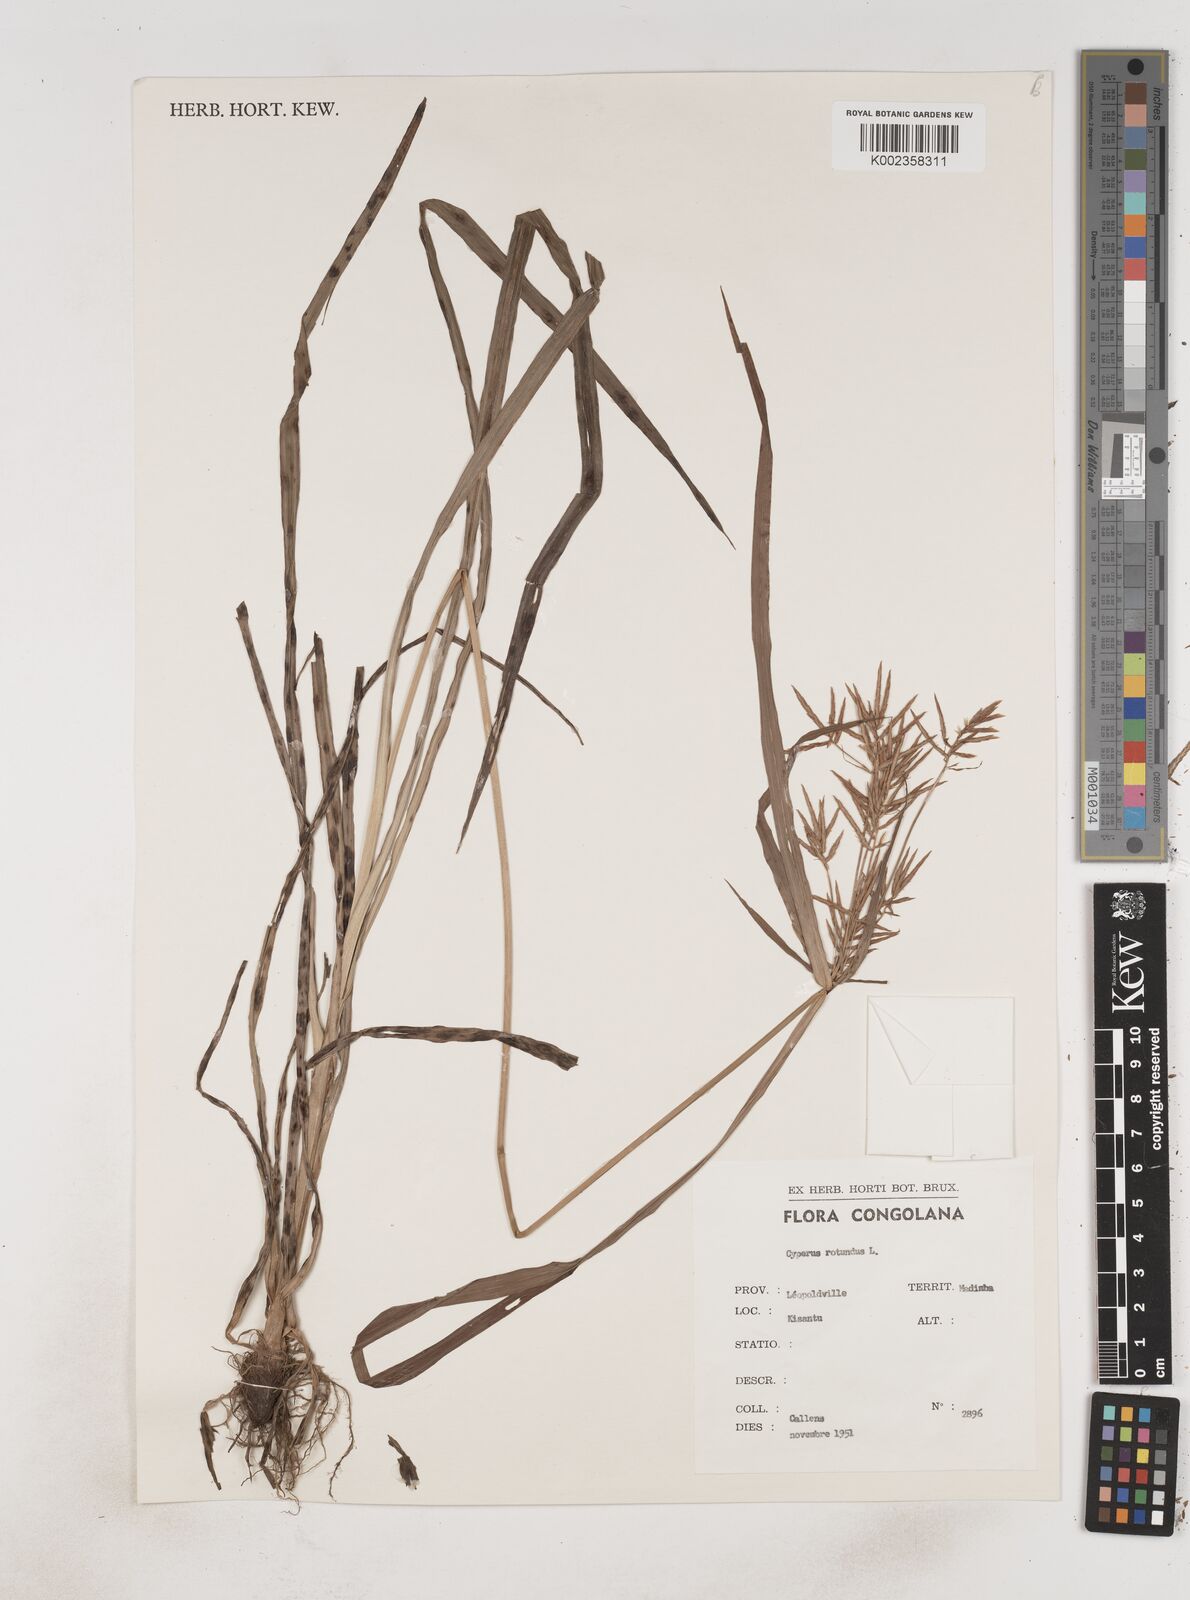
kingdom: Plantae
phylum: Tracheophyta
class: Liliopsida
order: Poales
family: Cyperaceae
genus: Cyperus
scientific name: Cyperus rotundus
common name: Nutgrass
